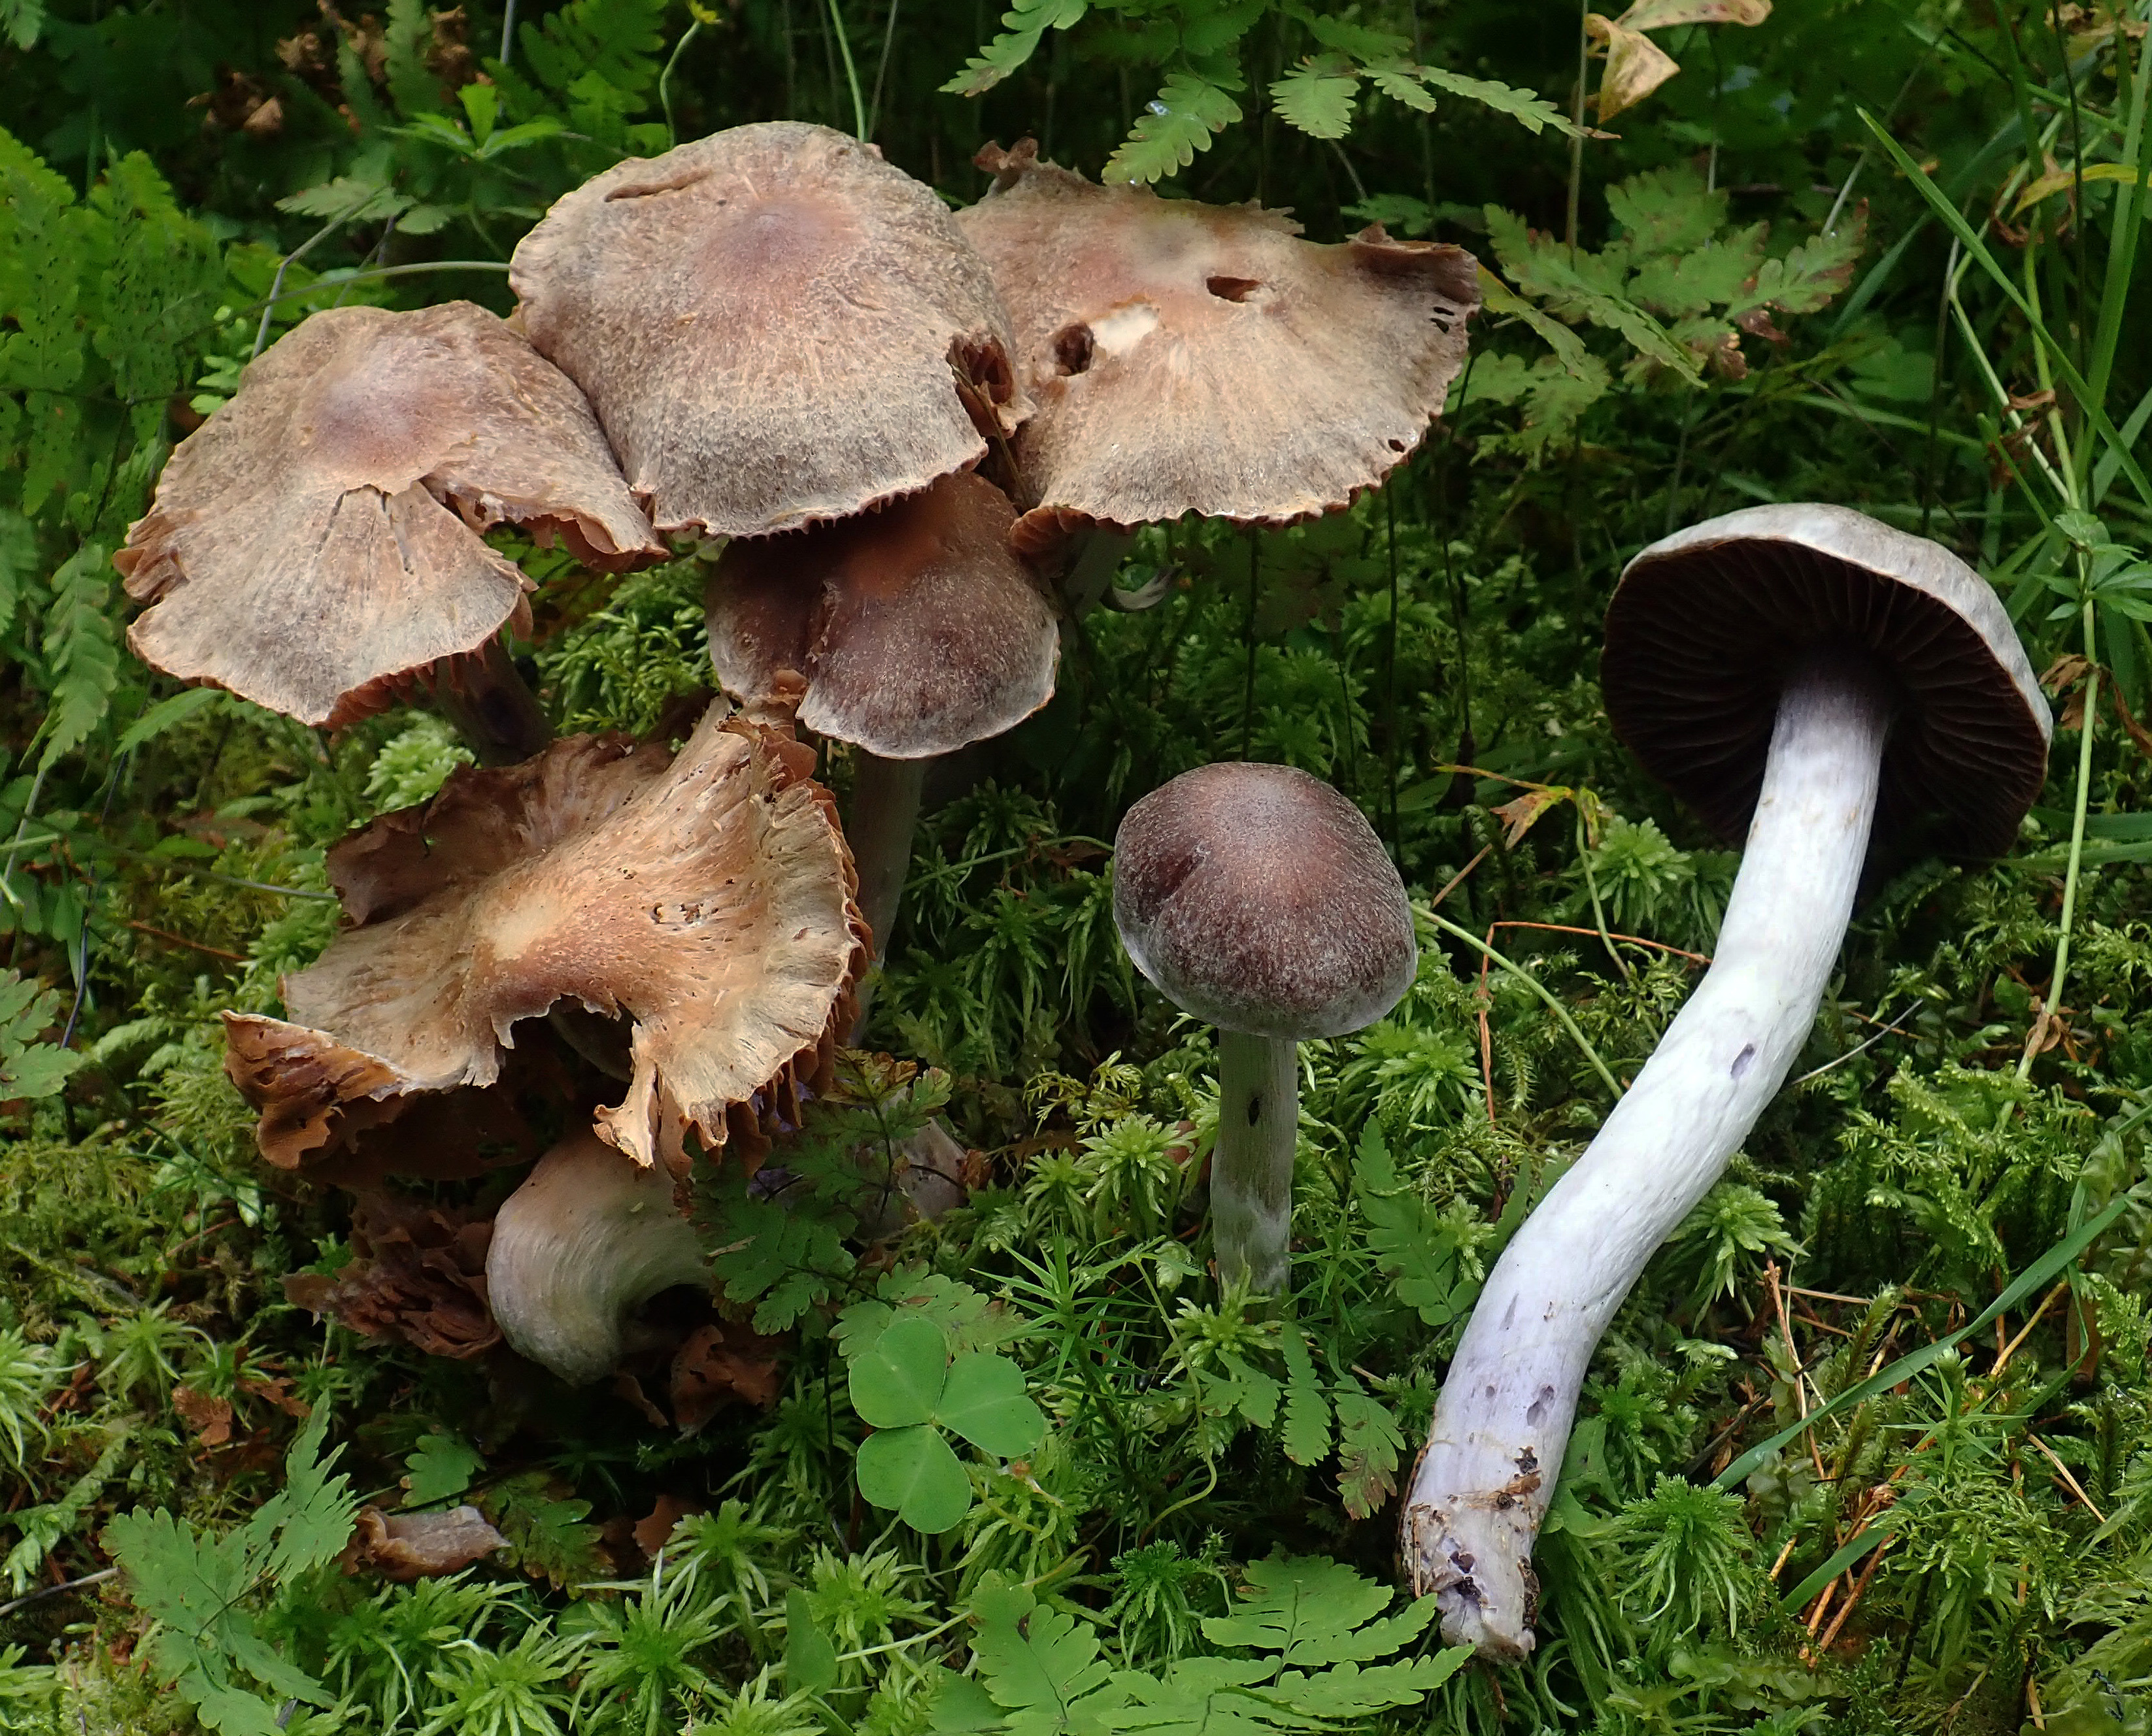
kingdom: Fungi
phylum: Basidiomycota
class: Agaricomycetes
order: Agaricales
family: Cortinariaceae
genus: Cortinarius
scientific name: Cortinarius ionophyllus
